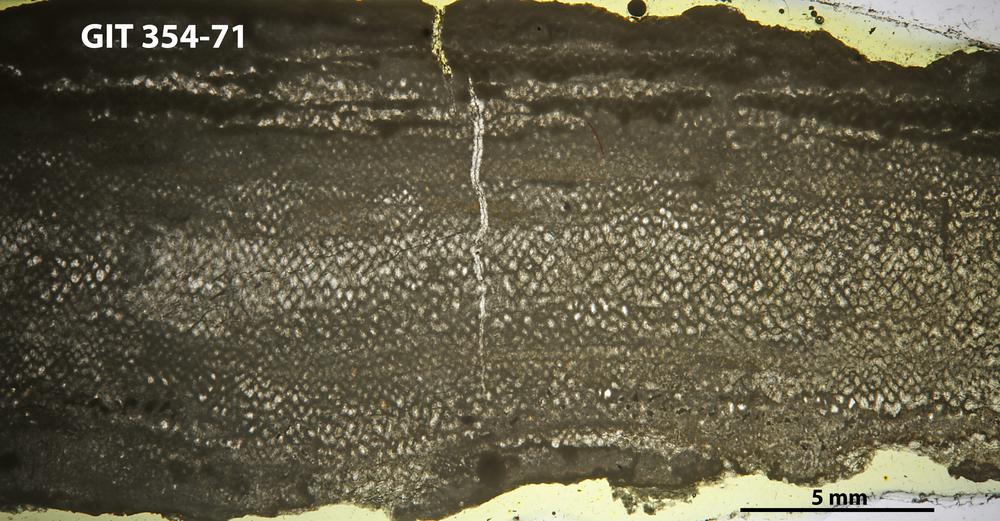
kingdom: Animalia
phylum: Porifera
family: Clathrodictyidae
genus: Clathrodictyon
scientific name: Clathrodictyon mammillatum
